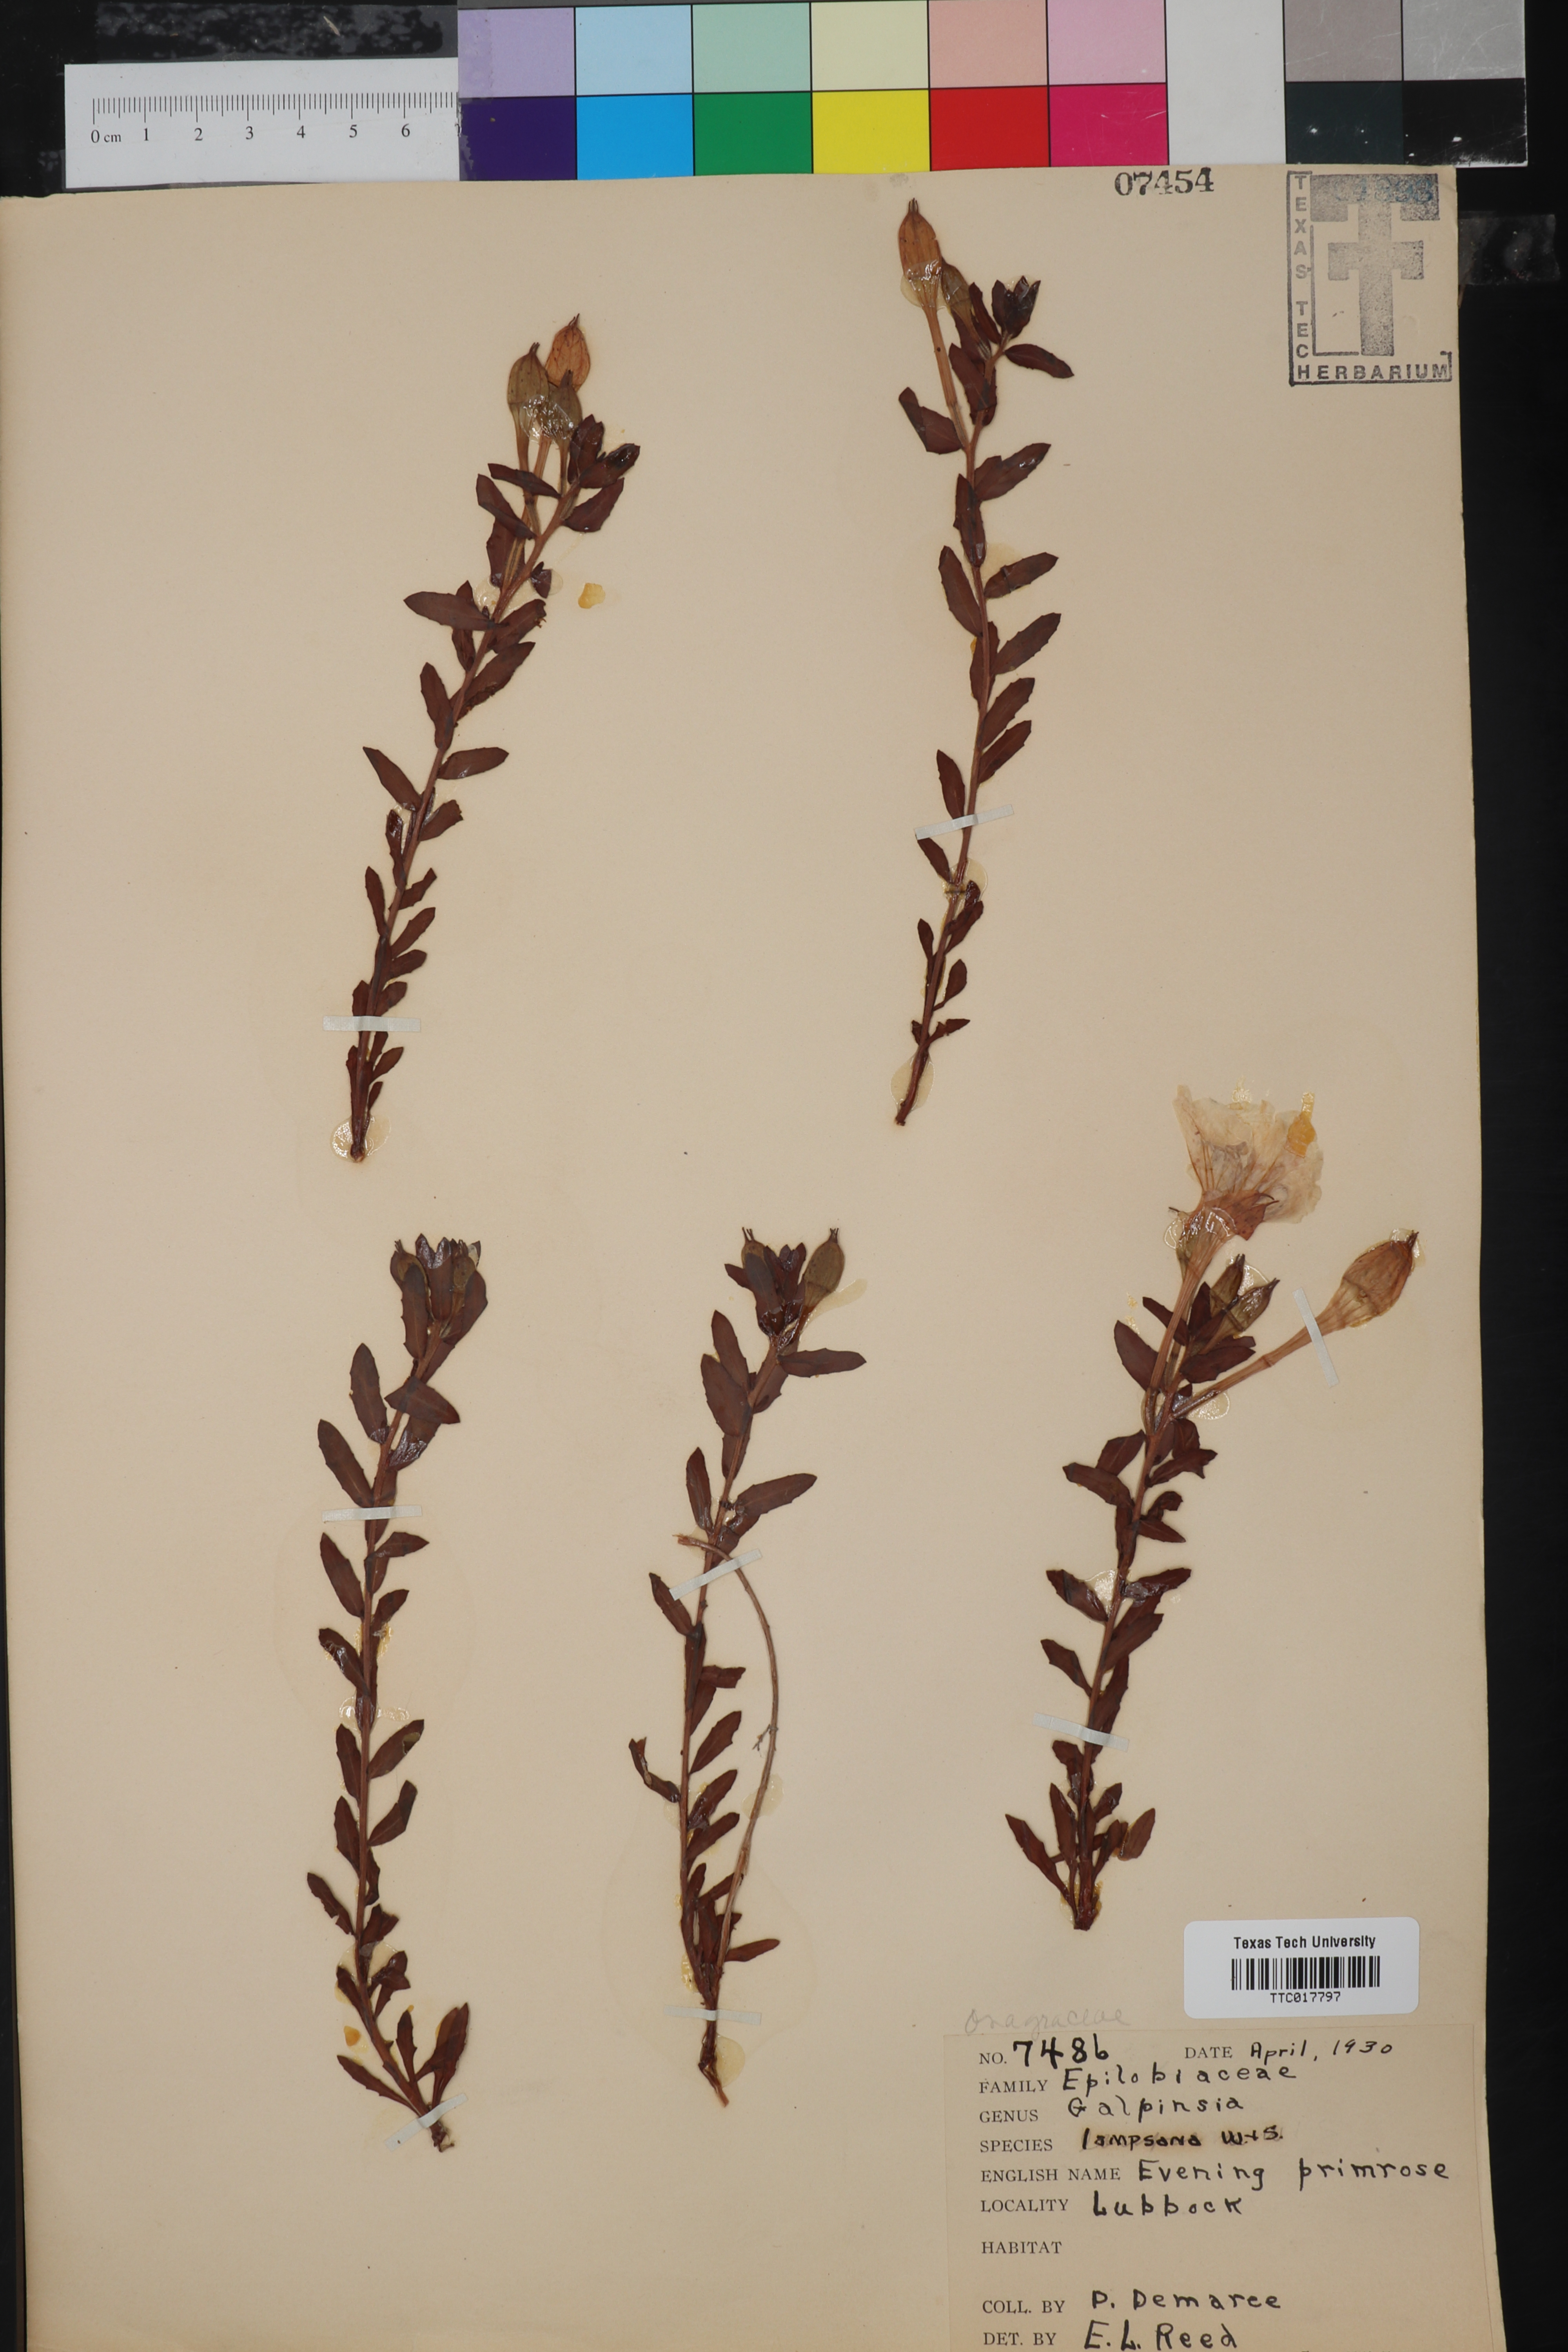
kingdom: Plantae
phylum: Tracheophyta
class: Magnoliopsida
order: Myrtales
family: Onagraceae
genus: Oenothera
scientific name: Oenothera hartwegii
